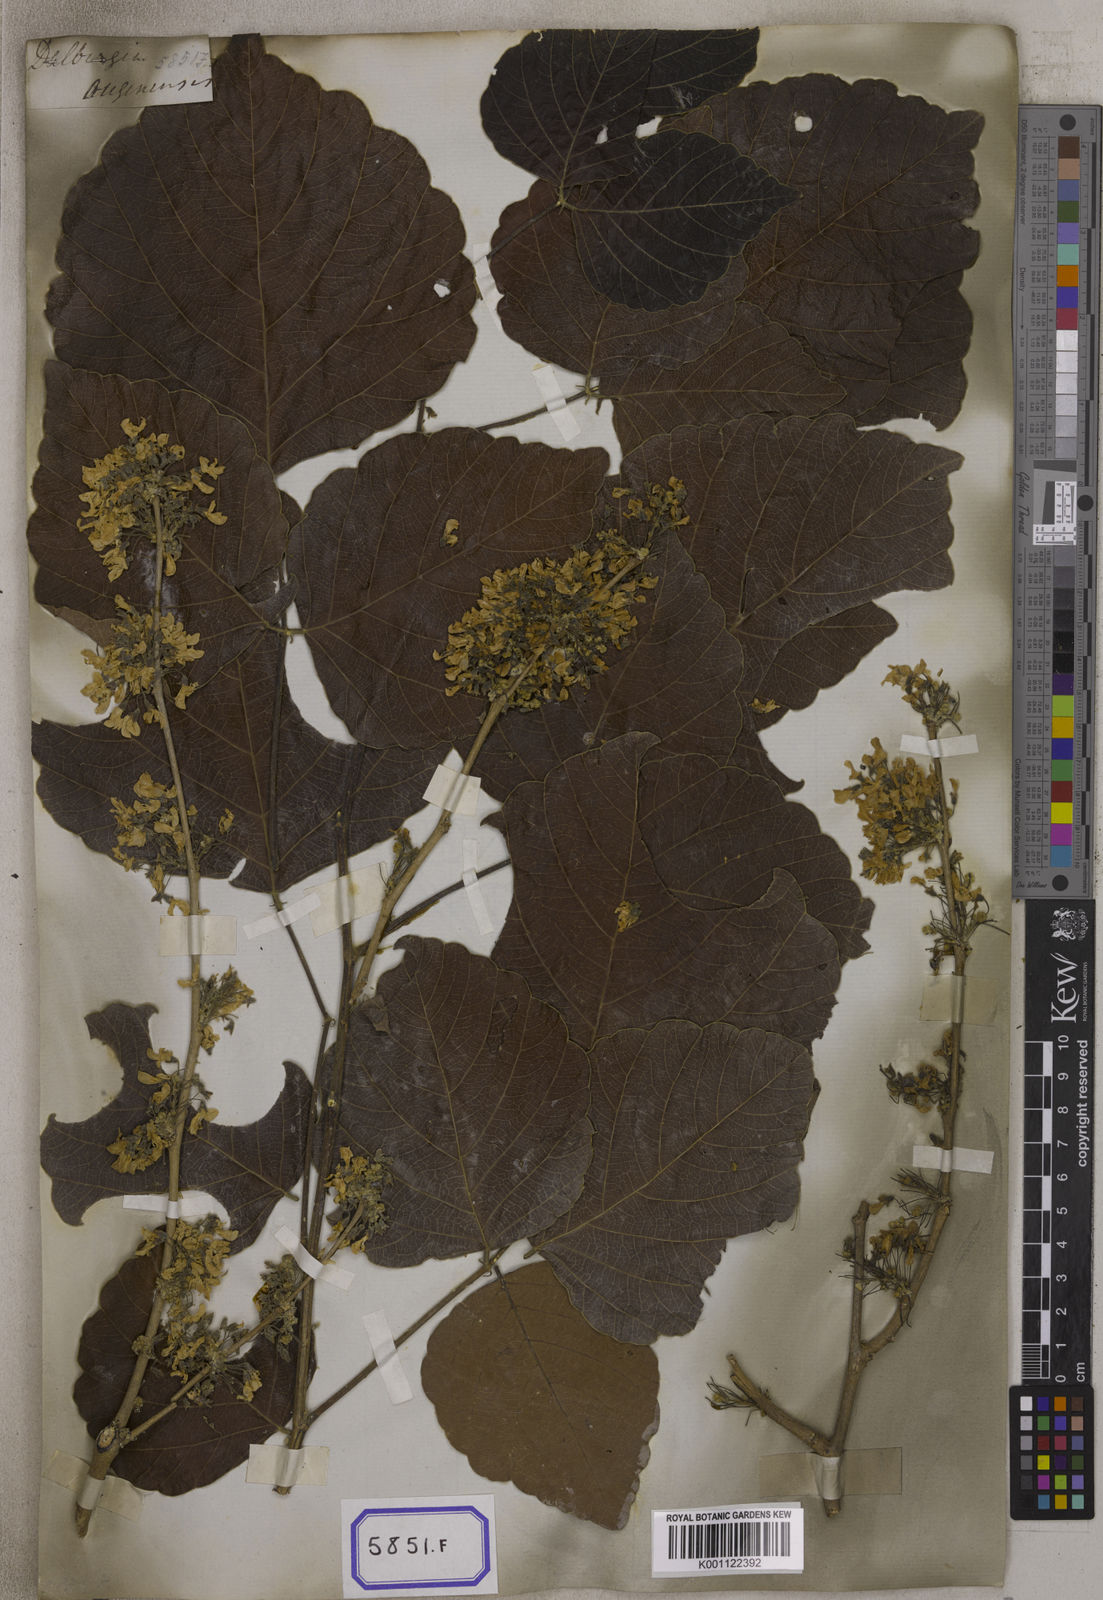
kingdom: Plantae
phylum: Tracheophyta
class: Magnoliopsida
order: Fabales
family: Fabaceae
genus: Ougeinia
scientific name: Ougeinia oojeinensis
